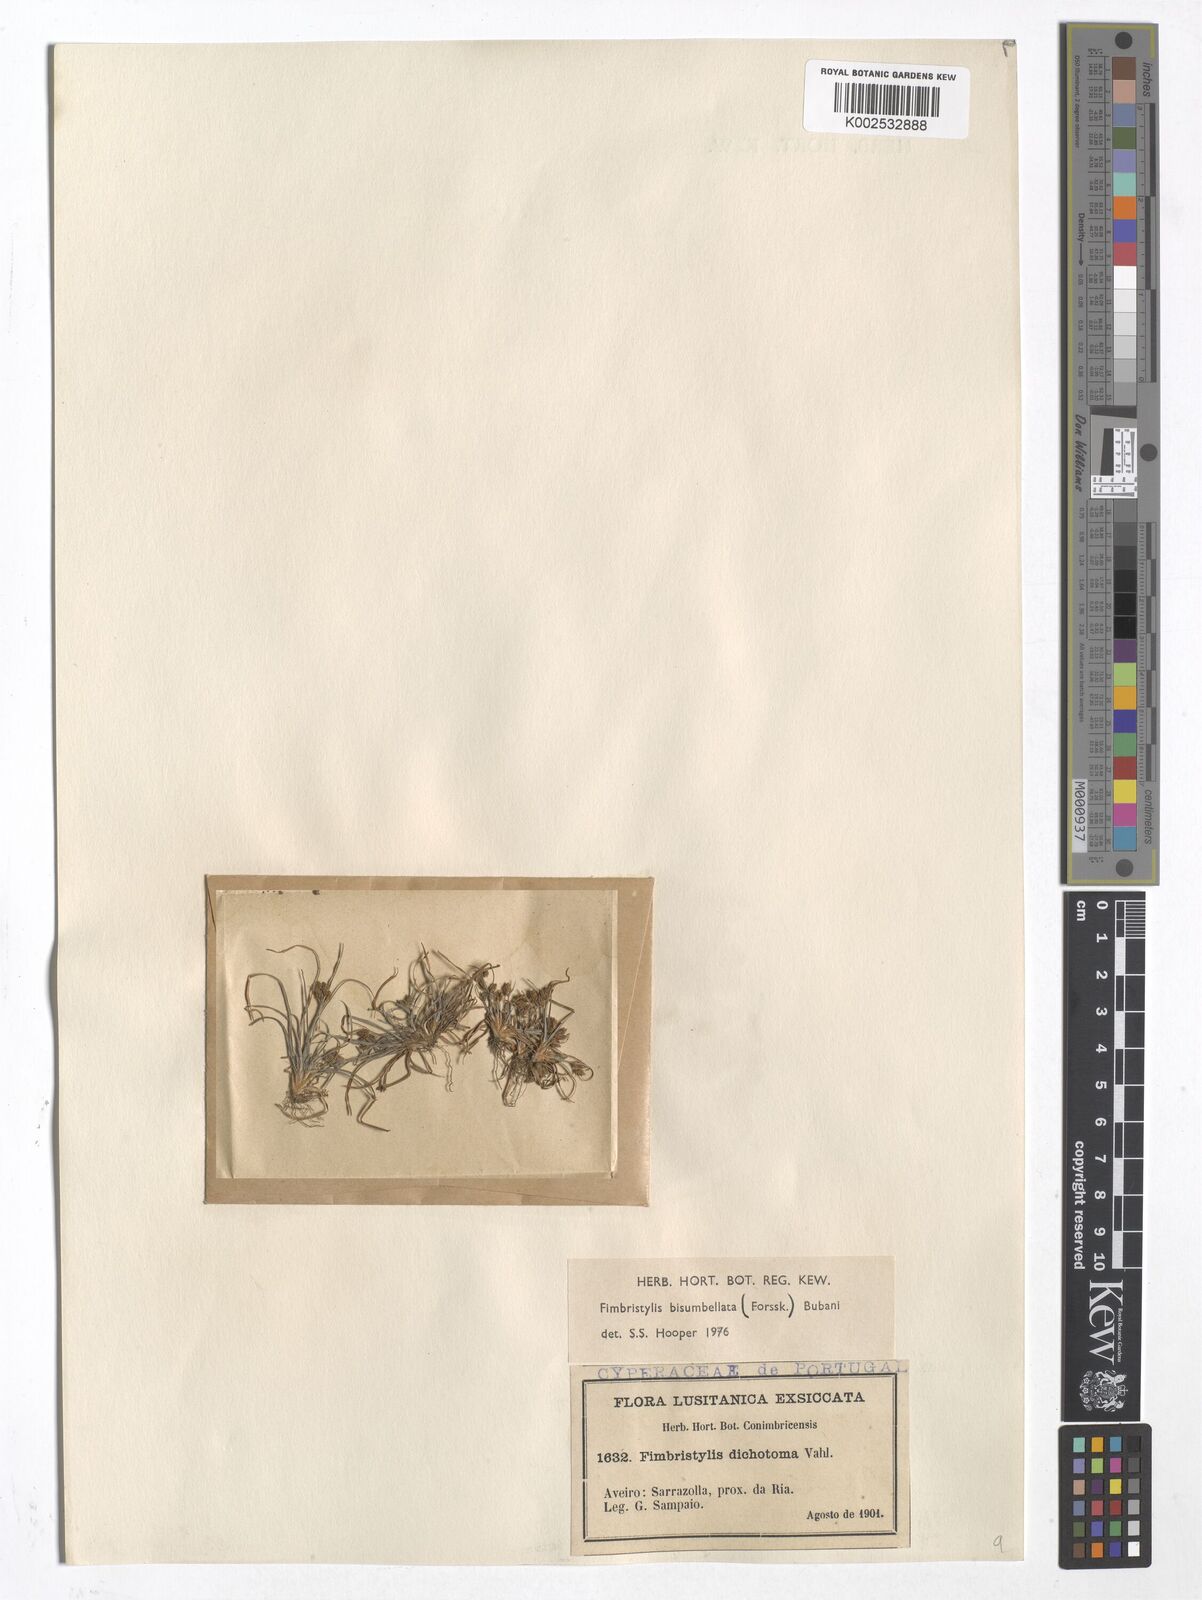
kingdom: Plantae
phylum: Tracheophyta
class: Liliopsida
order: Poales
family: Cyperaceae
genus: Fimbristylis
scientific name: Fimbristylis bisumbellata
